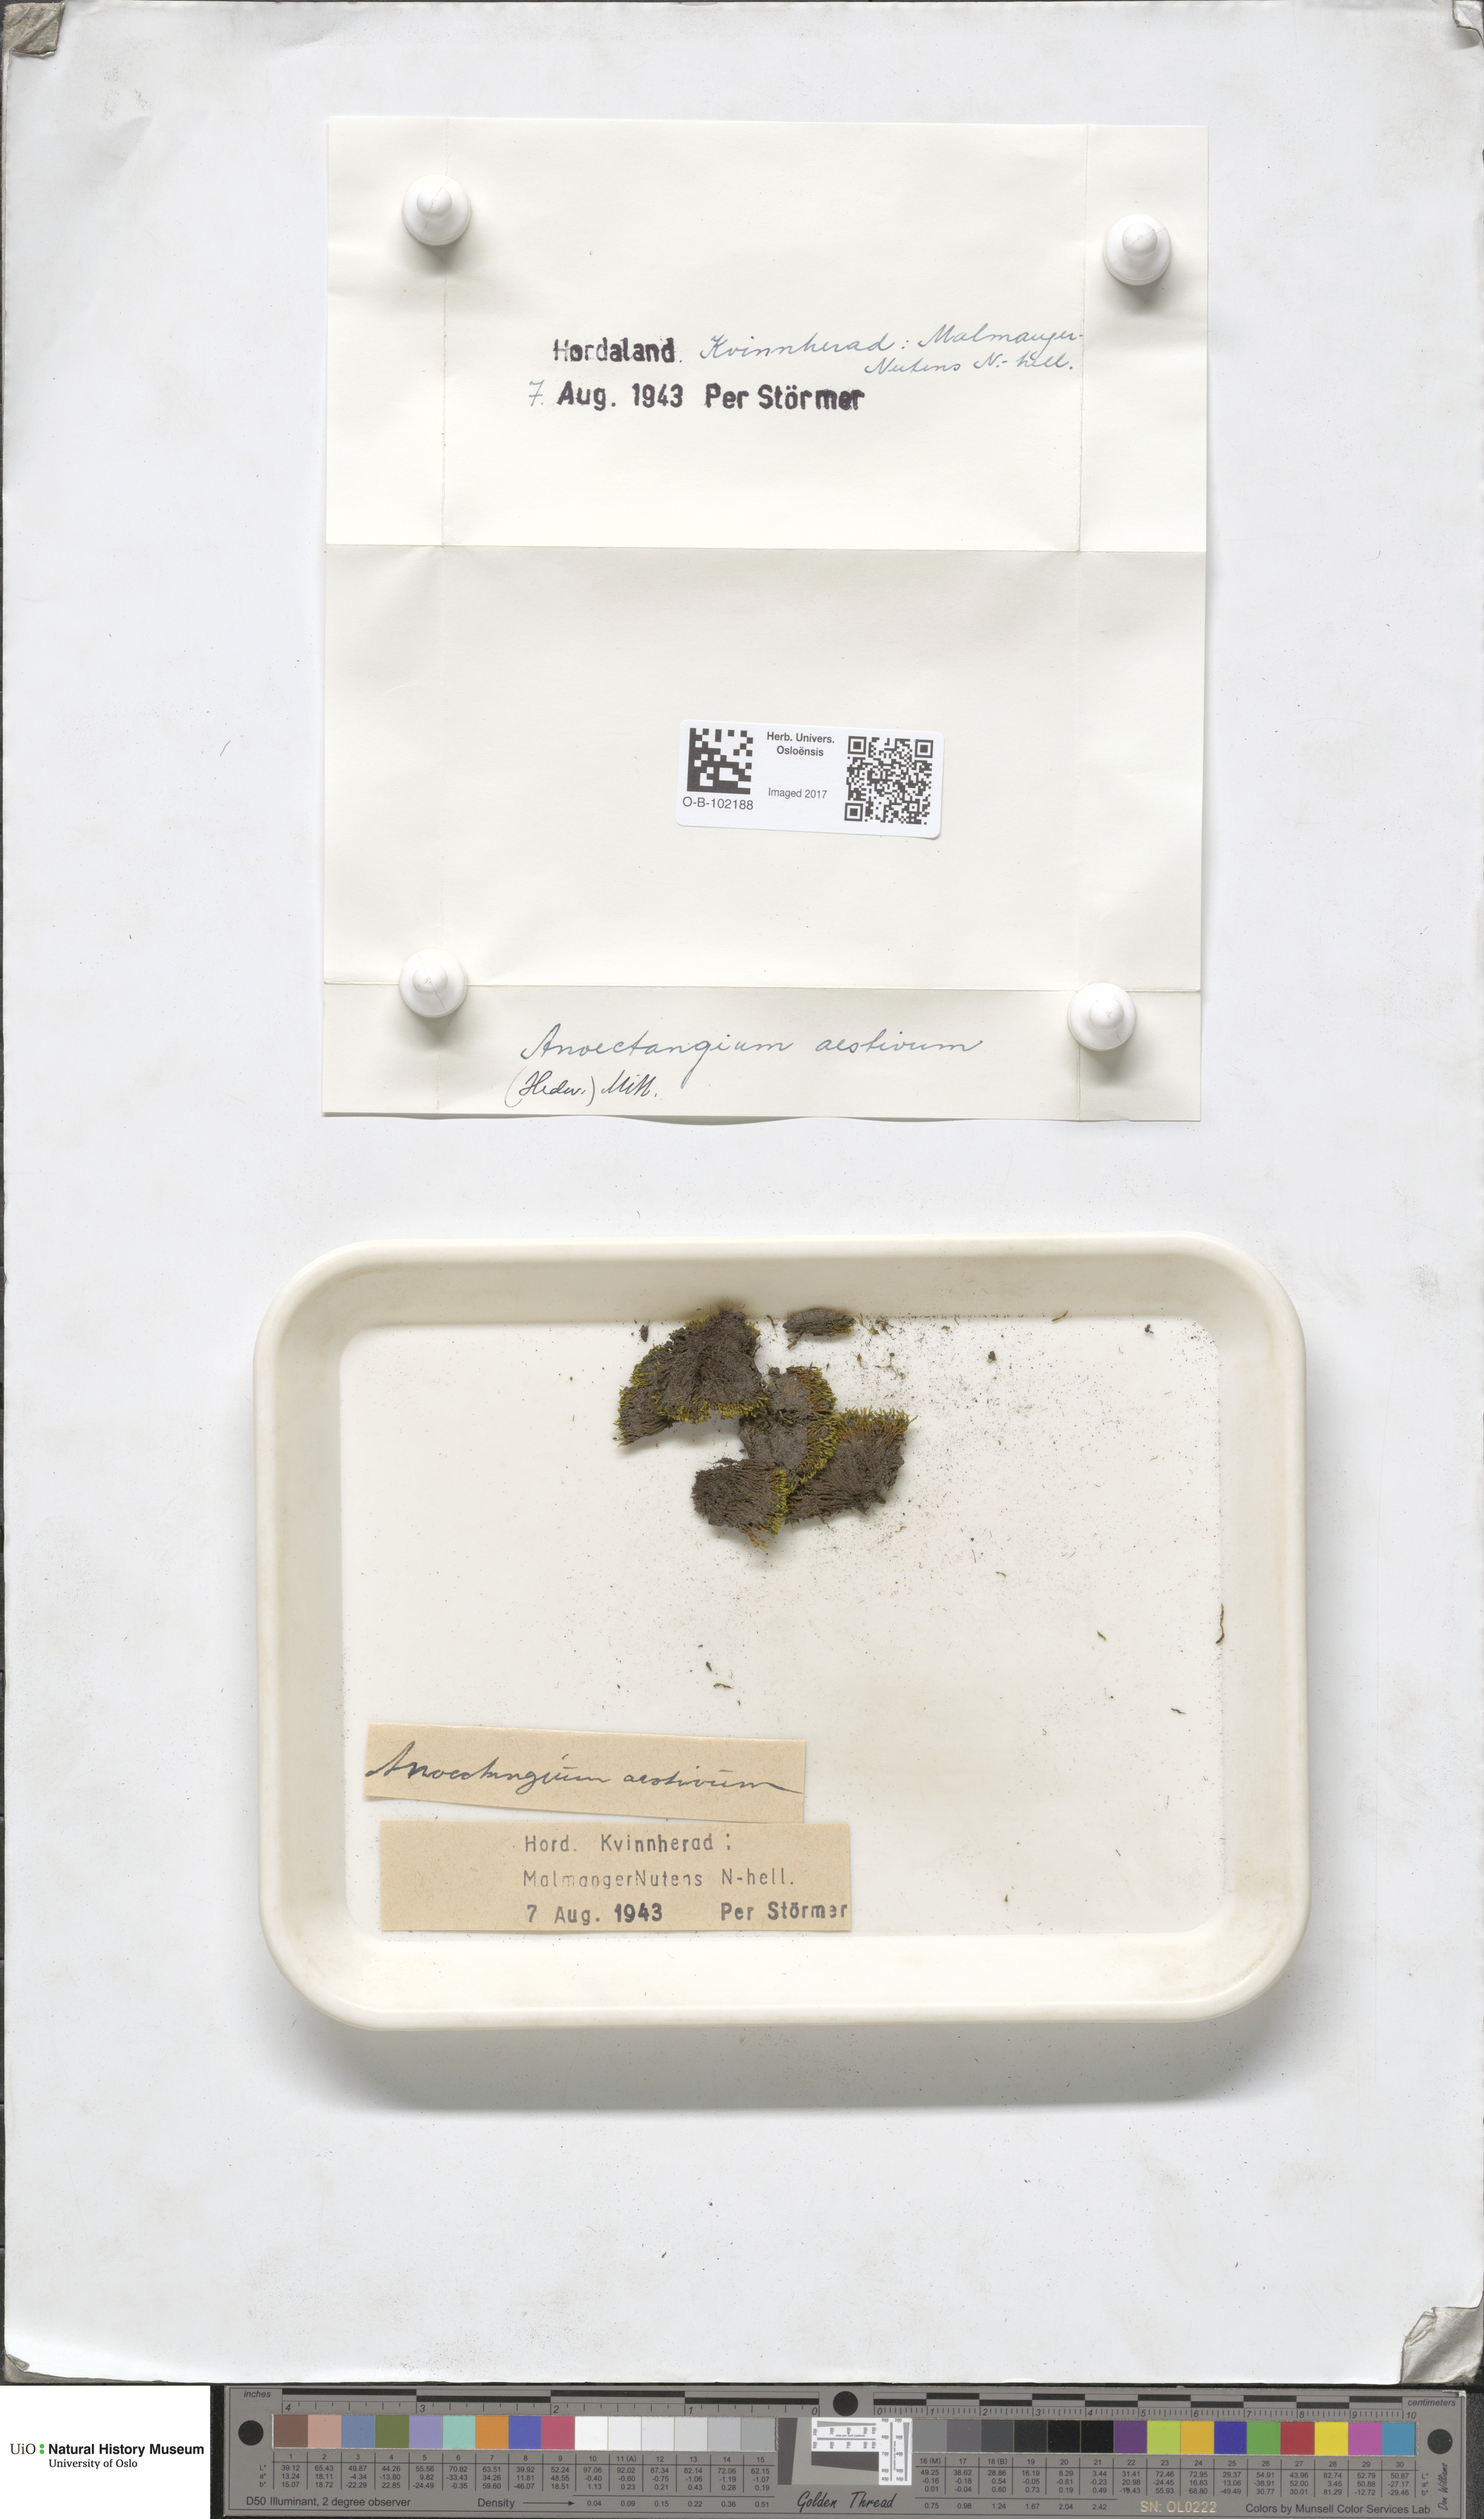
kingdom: Plantae
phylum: Bryophyta
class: Bryopsida
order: Pottiales
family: Pottiaceae
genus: Anoectangium
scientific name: Anoectangium aestivum
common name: Summer-moss
